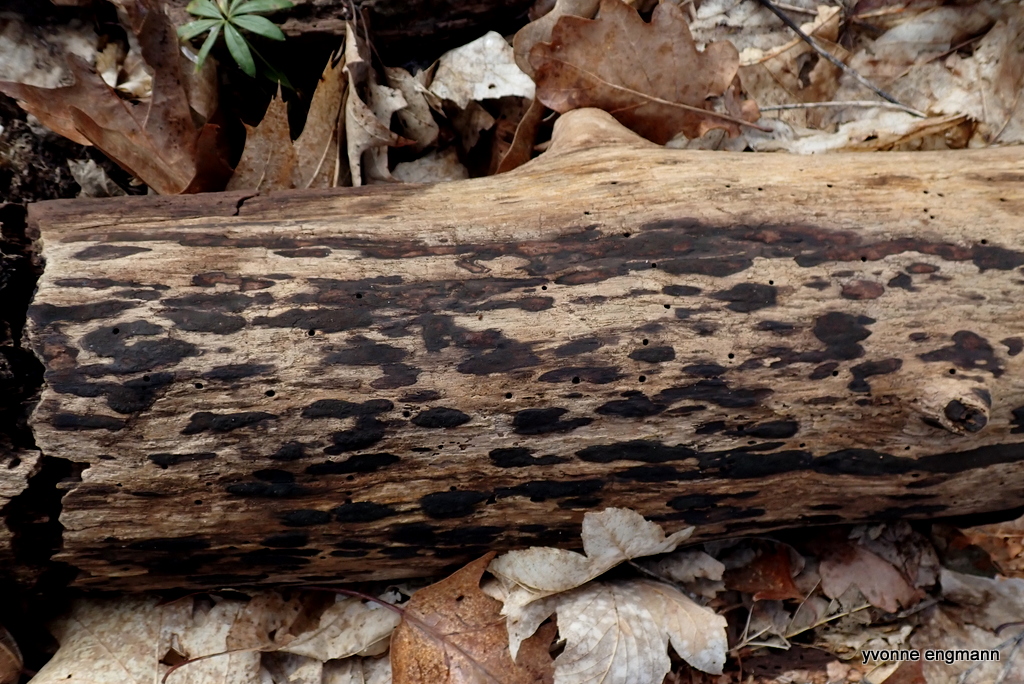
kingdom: Fungi
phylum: Ascomycota
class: Sordariomycetes
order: Xylariales
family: Hypoxylaceae
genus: Hypoxylon
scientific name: Hypoxylon petriniae
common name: nedsænket kulbær
